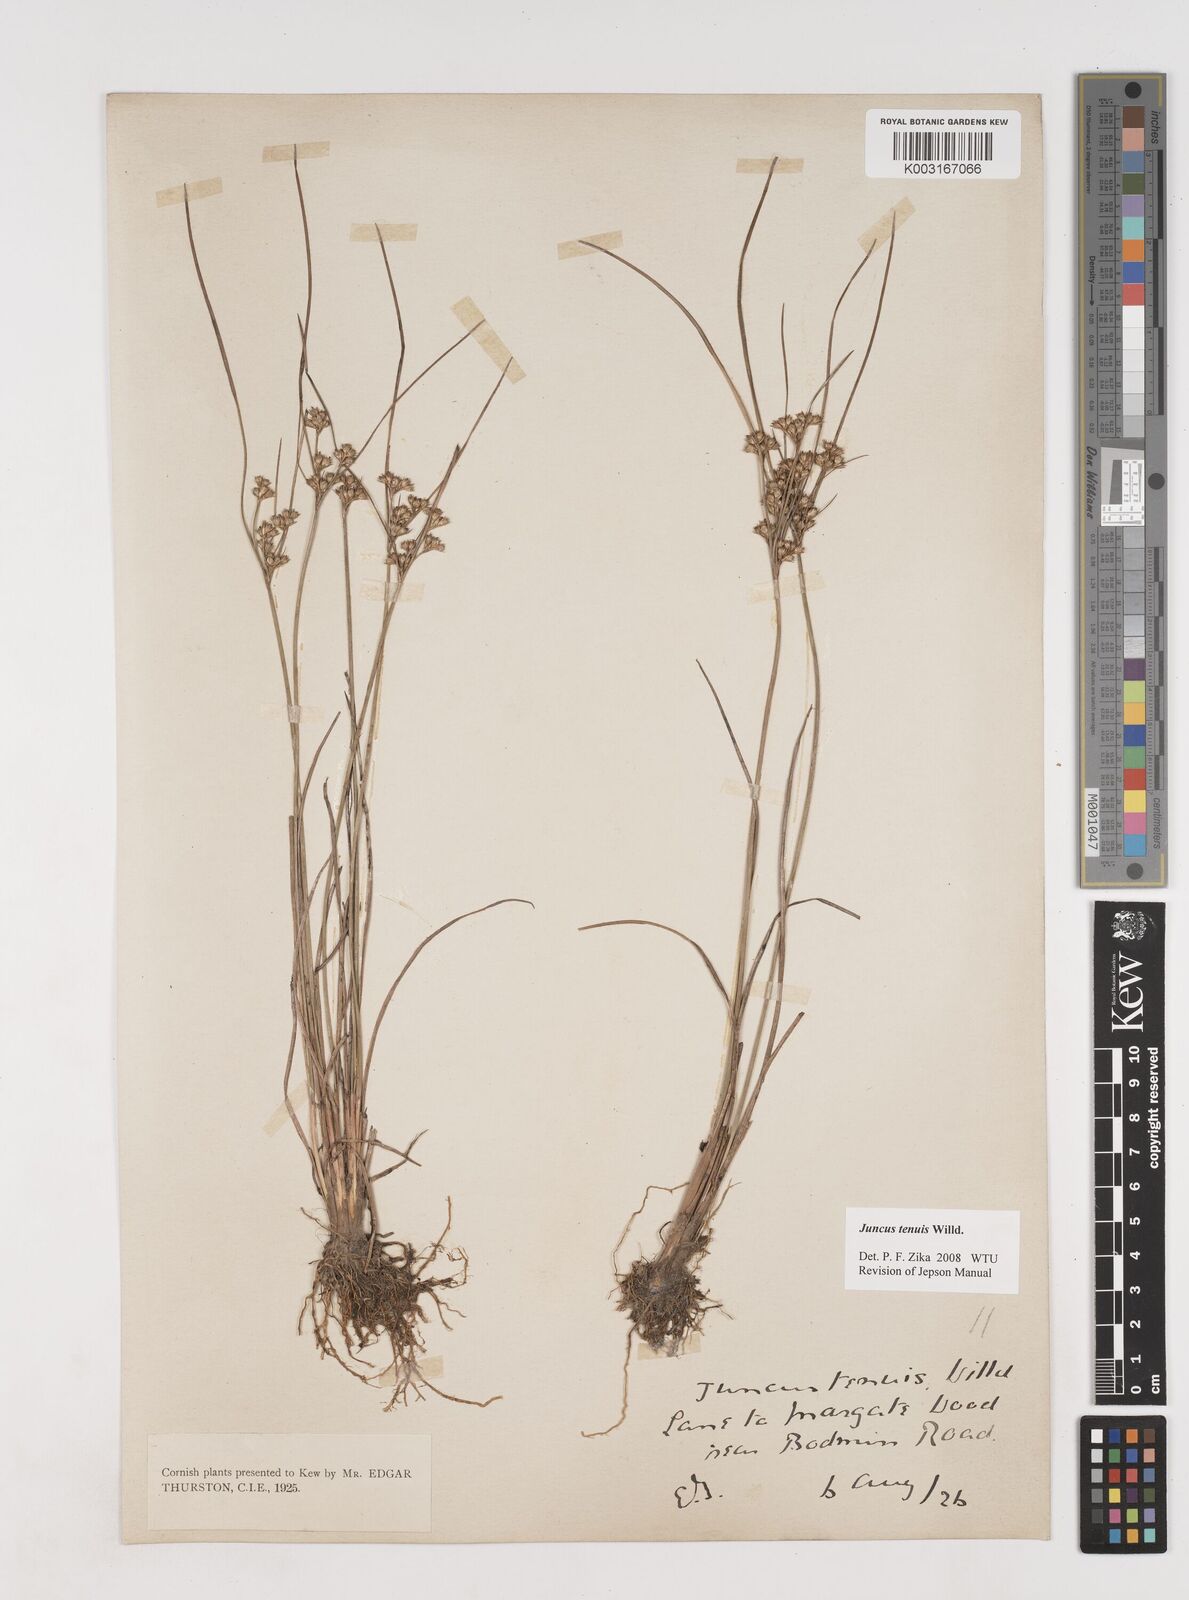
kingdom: Plantae
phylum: Tracheophyta
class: Liliopsida
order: Poales
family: Juncaceae
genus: Juncus
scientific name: Juncus tenuis
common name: Slender rush
